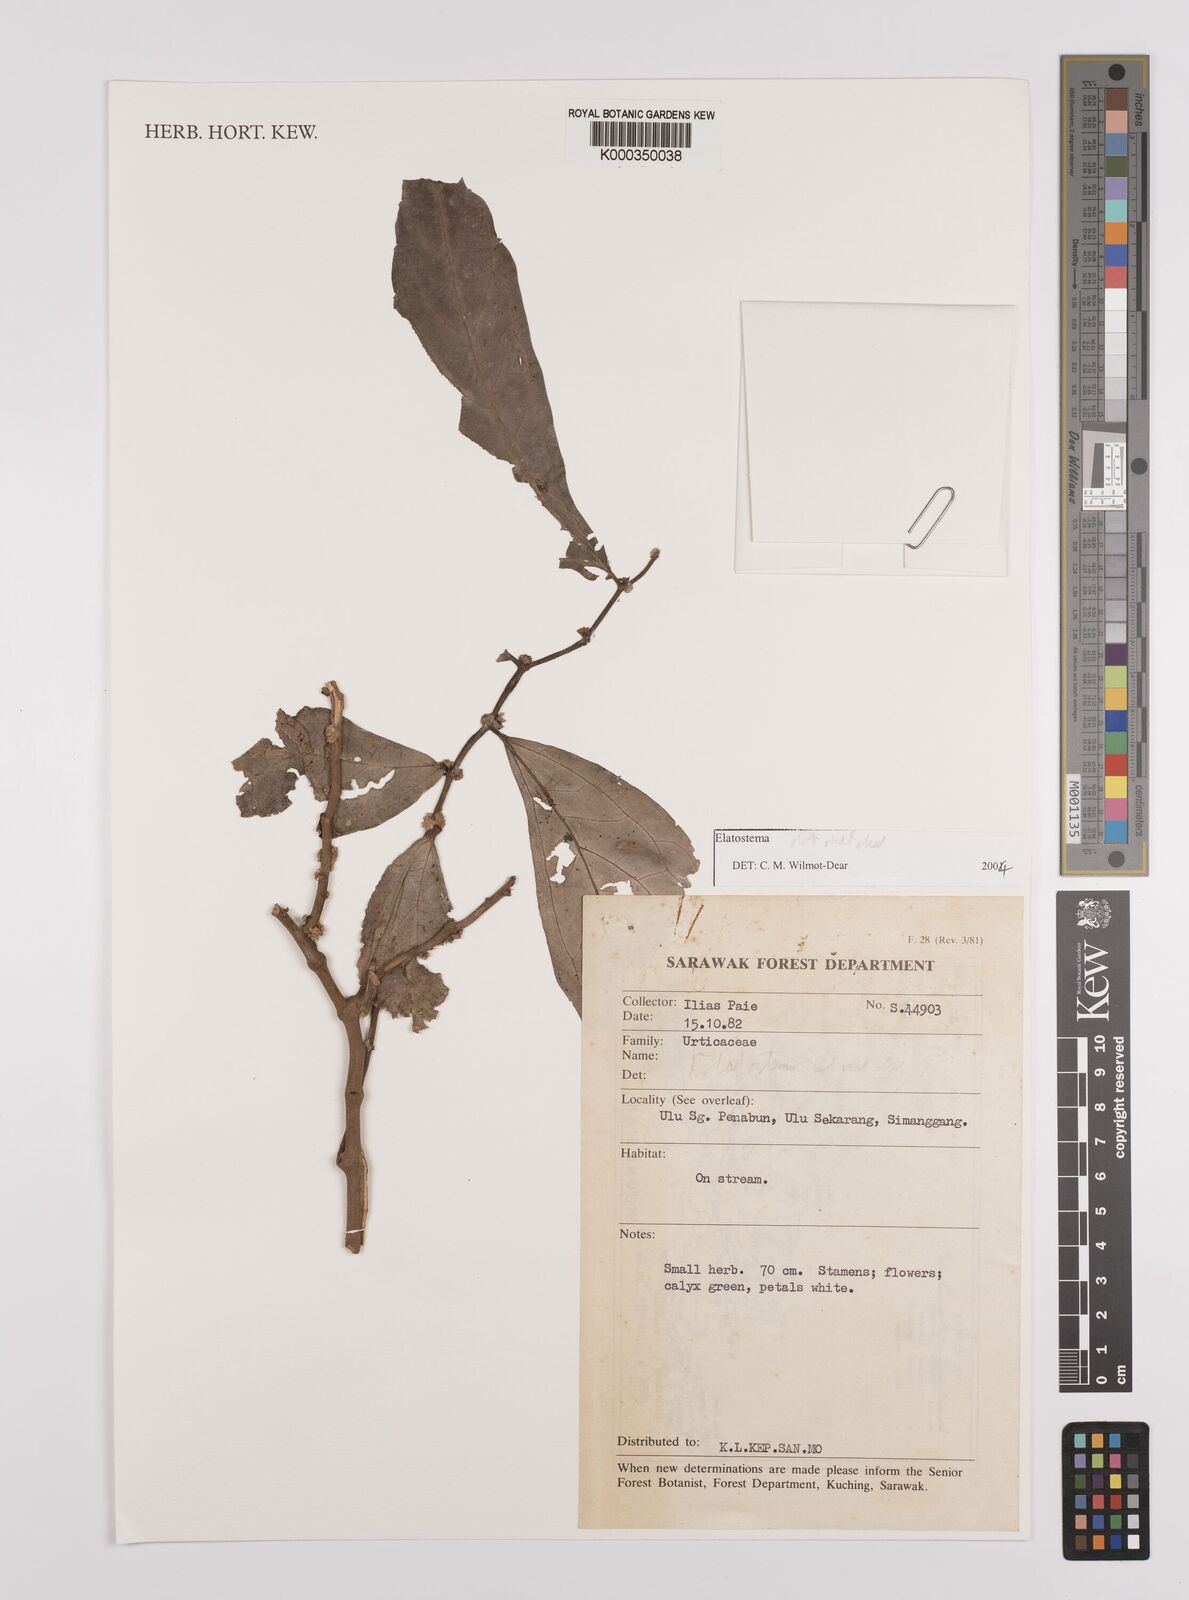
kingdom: Plantae
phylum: Tracheophyta
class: Magnoliopsida
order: Rosales
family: Urticaceae
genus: Elatostema
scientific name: Elatostema
